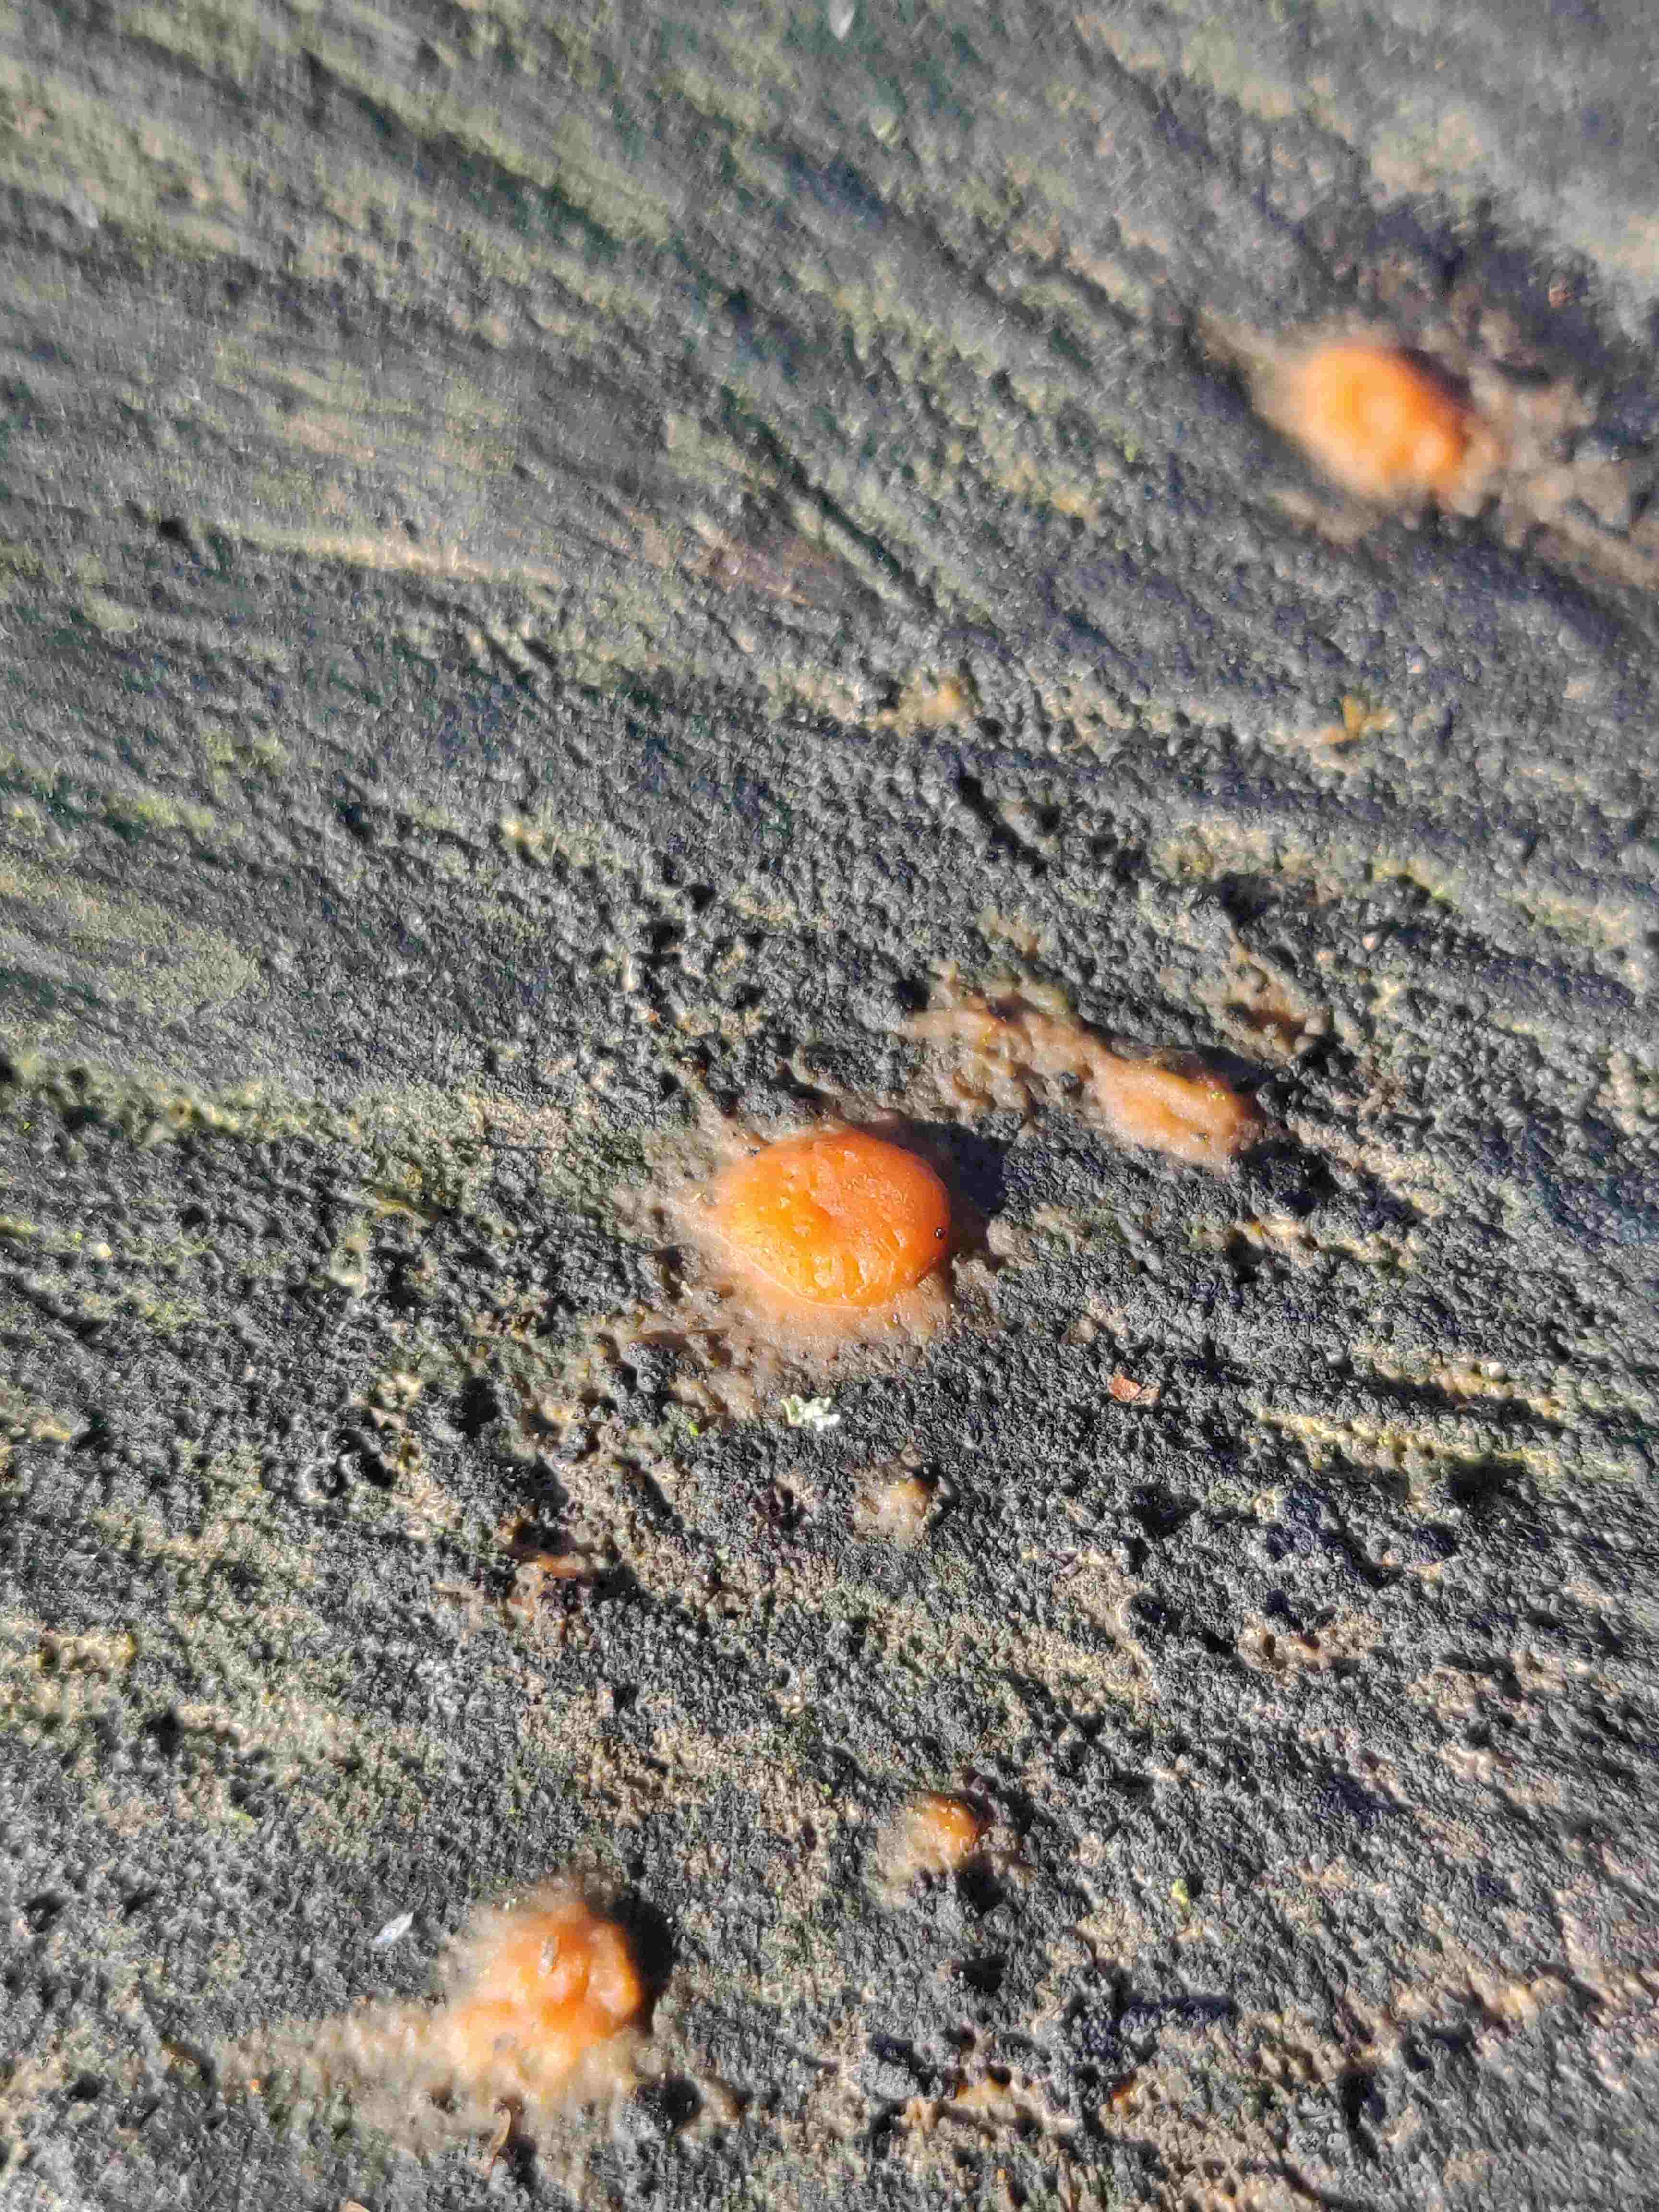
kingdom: Fungi
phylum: Basidiomycota
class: Dacrymycetes
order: Dacrymycetales
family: Dacrymycetaceae
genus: Dacrymyces
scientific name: Dacrymyces stillatus
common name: almindelig tåresvamp
